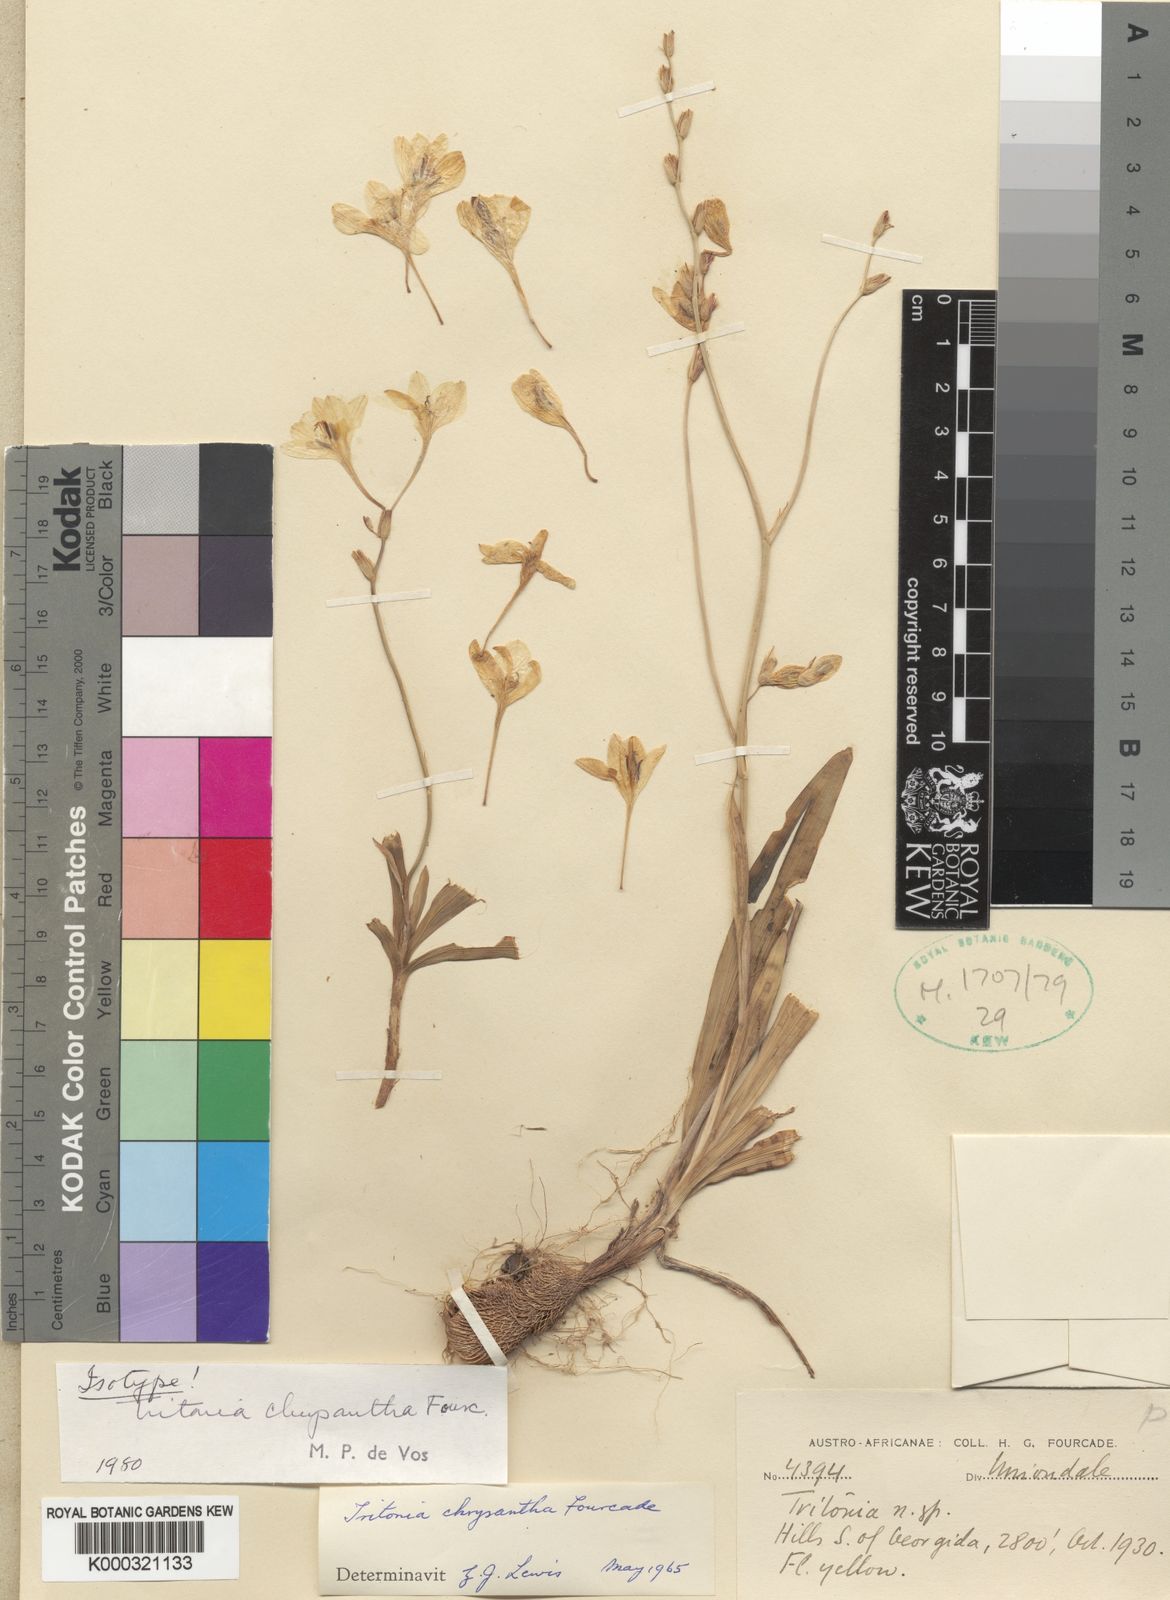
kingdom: Plantae
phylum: Tracheophyta
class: Liliopsida
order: Asparagales
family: Iridaceae
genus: Tritonia
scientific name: Tritonia chrysantha
